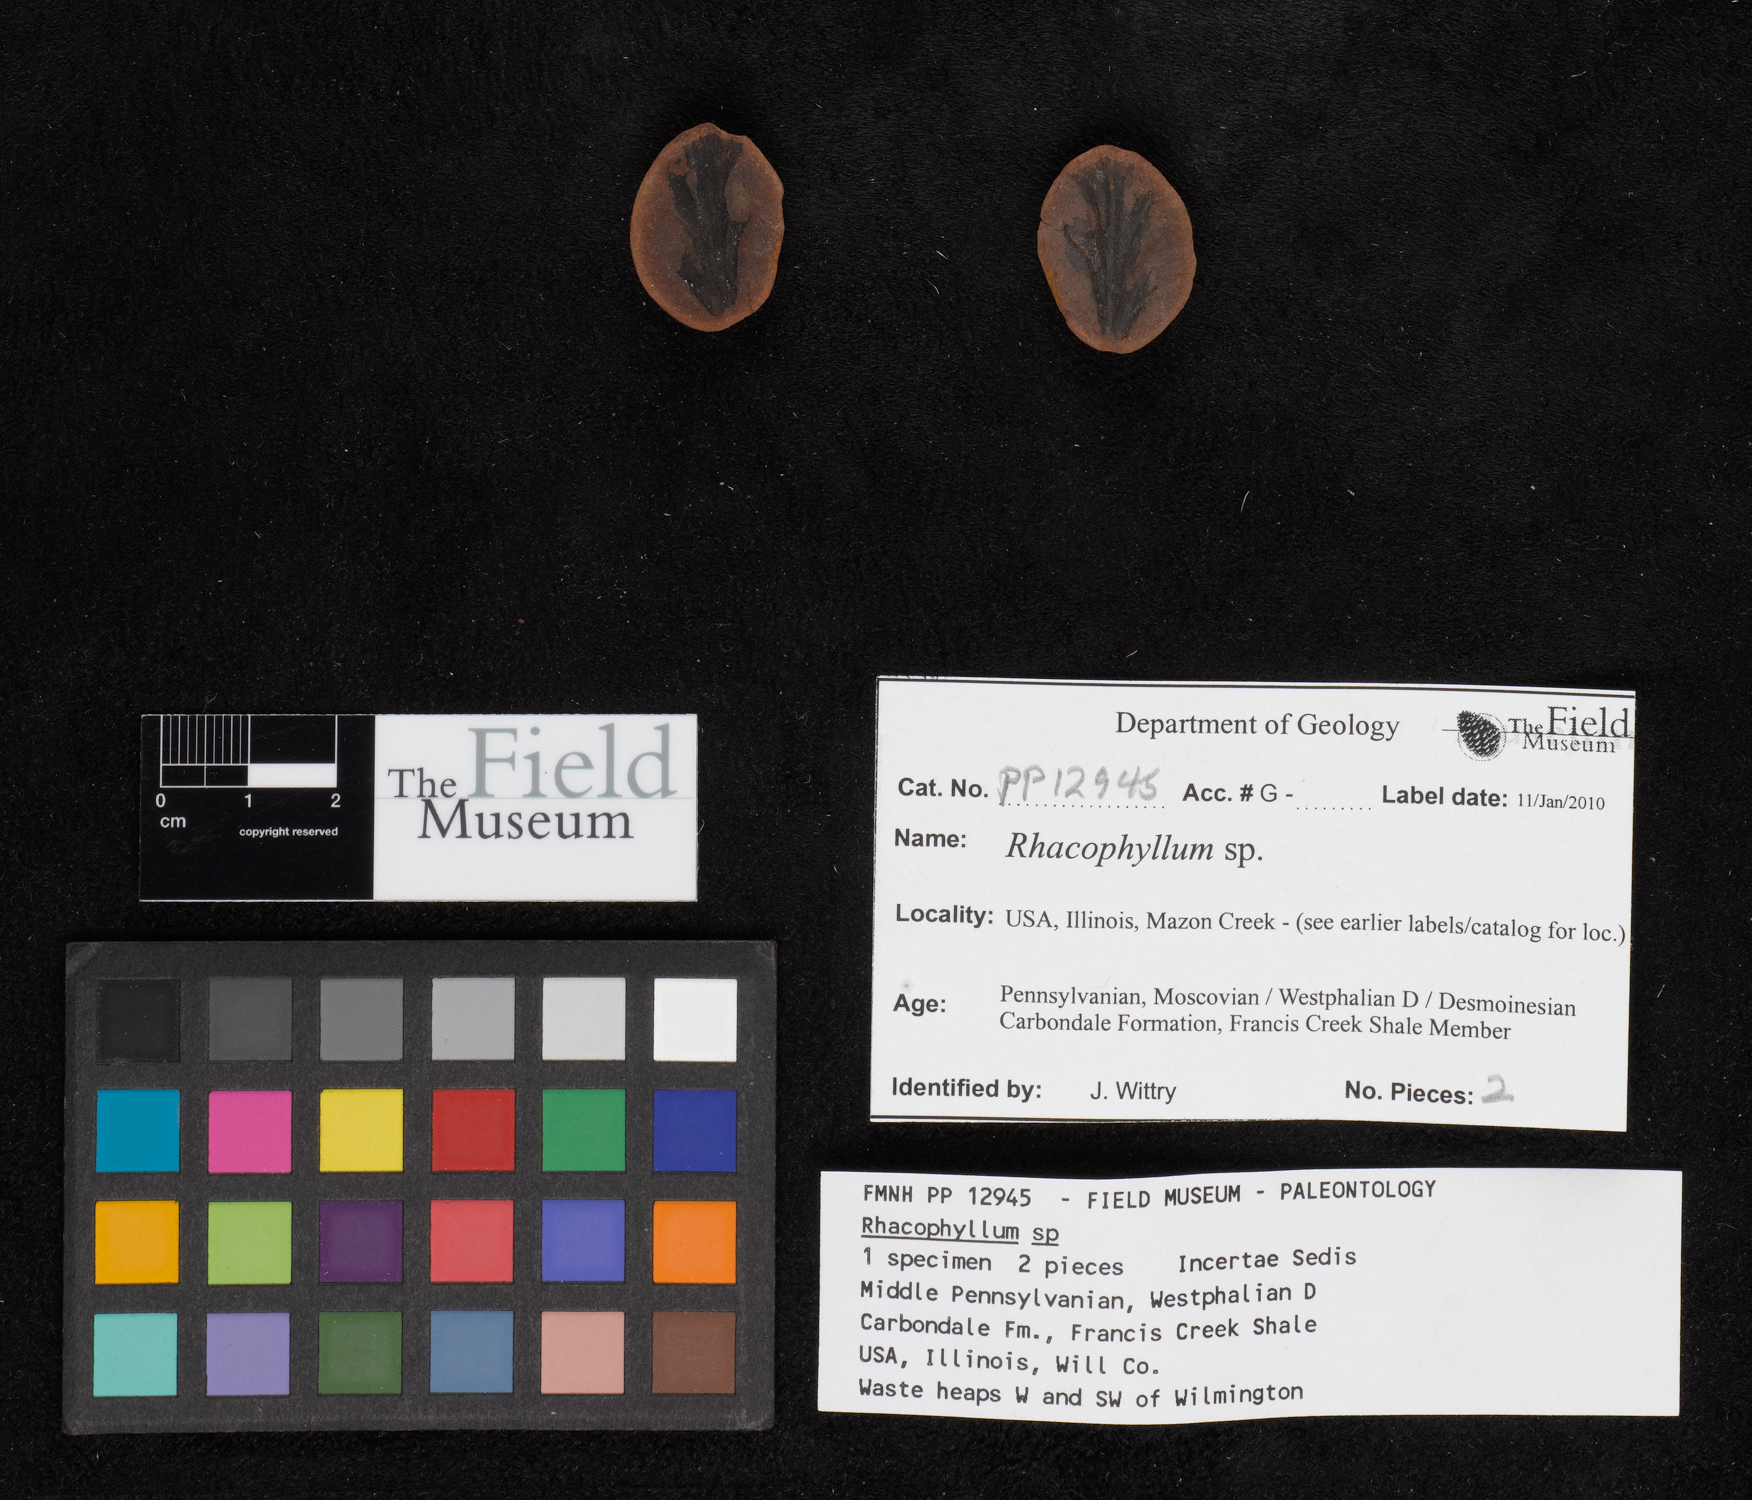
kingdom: Plantae
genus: Rhacophyllum
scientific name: Rhacophyllum
